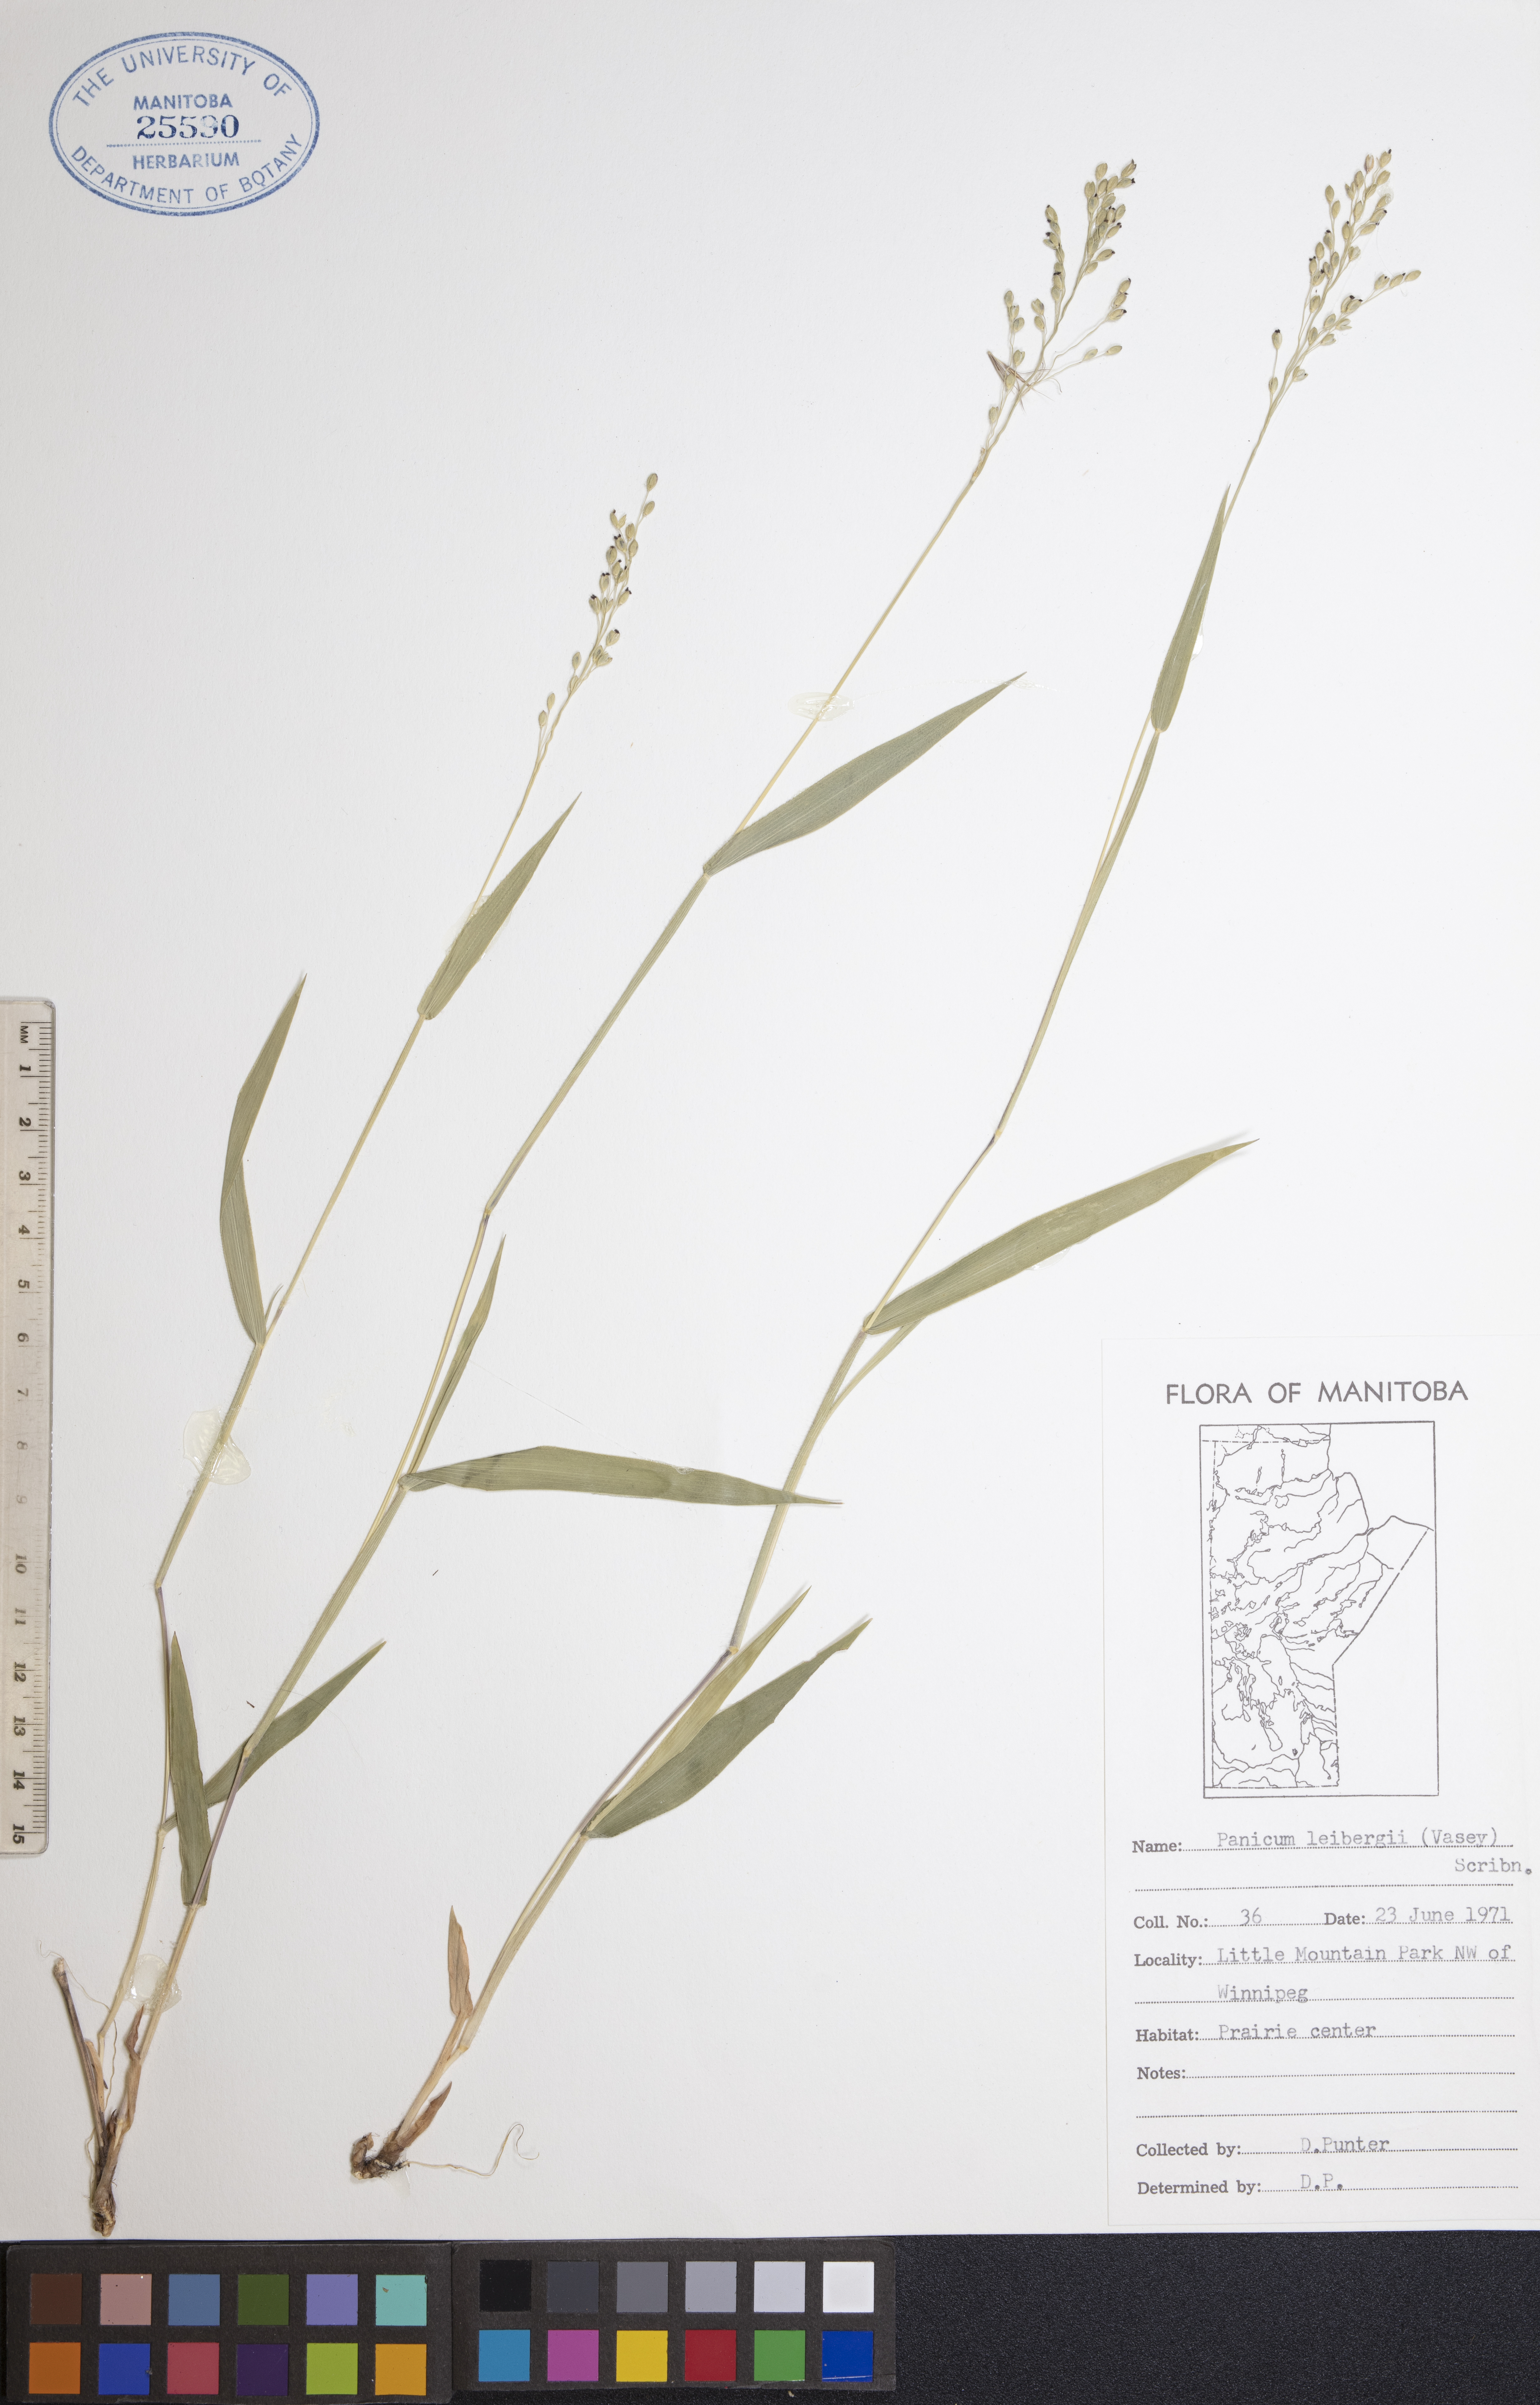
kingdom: Plantae
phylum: Tracheophyta
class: Liliopsida
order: Poales
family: Poaceae
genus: Dichanthelium
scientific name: Dichanthelium leibergii
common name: Leiberg's panic grass
